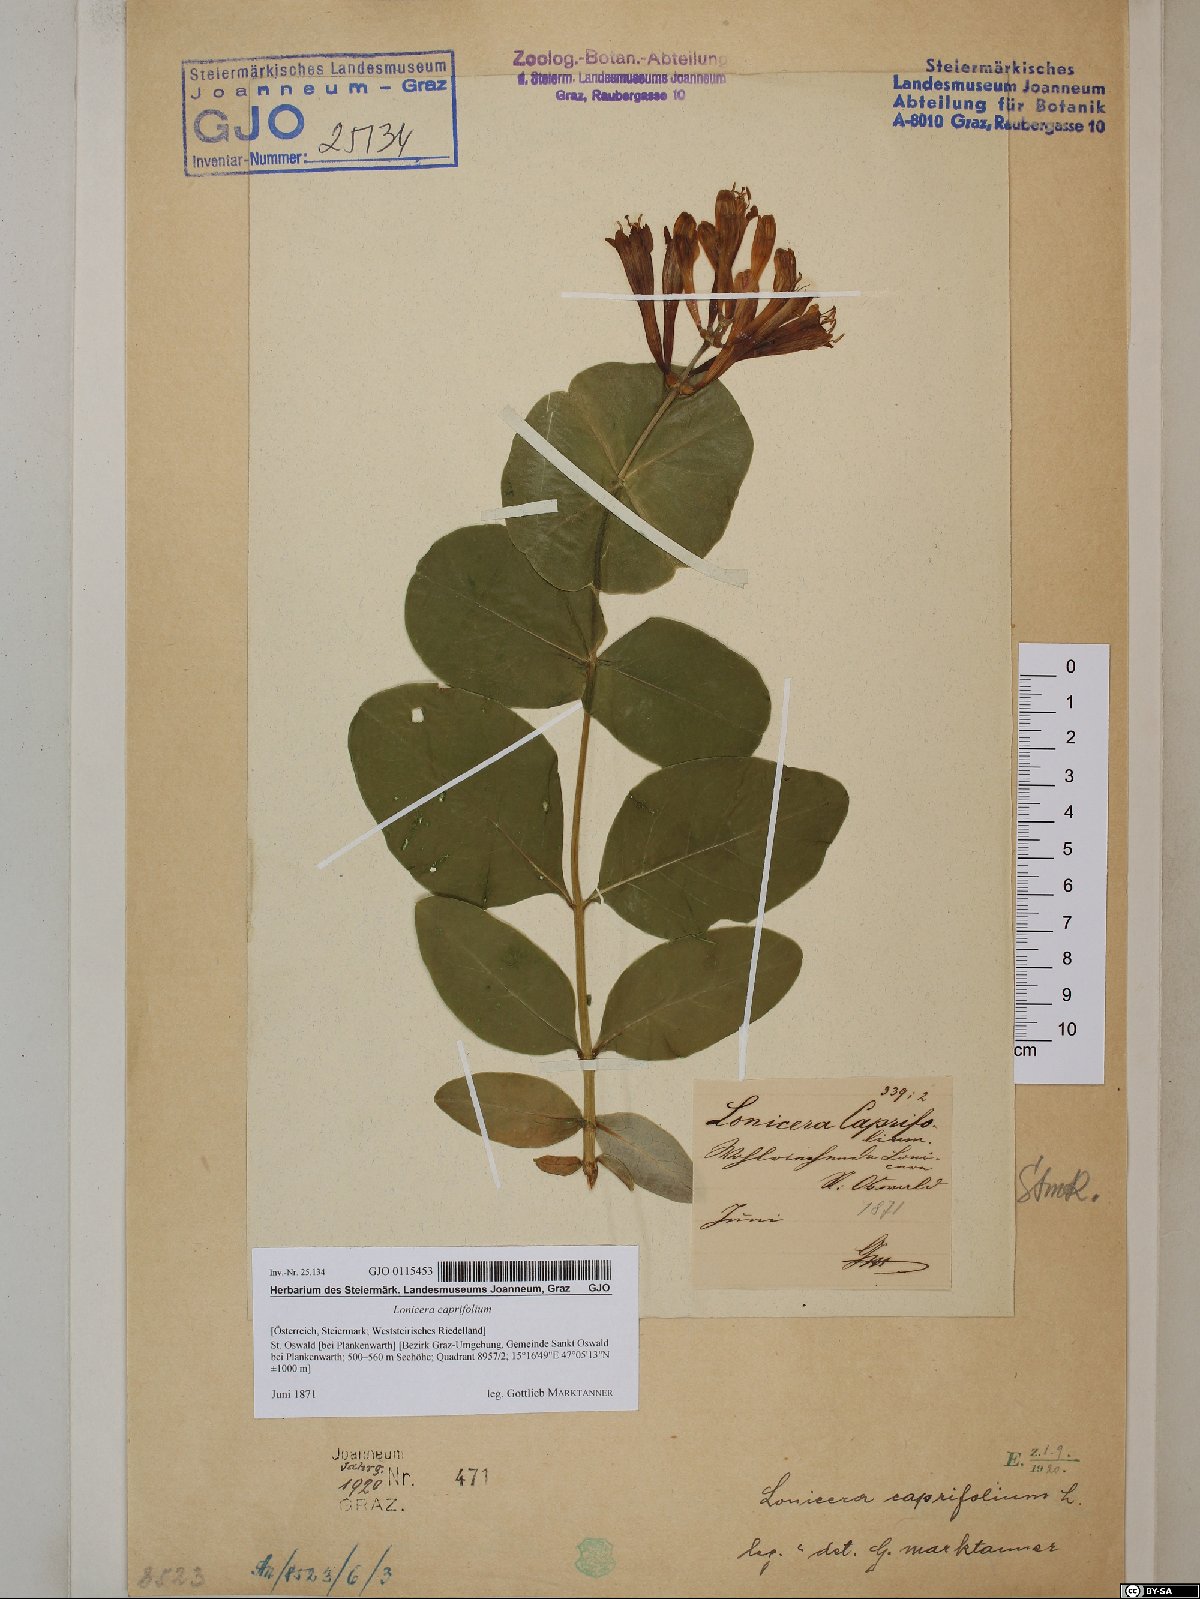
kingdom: Plantae
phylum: Tracheophyta
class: Magnoliopsida
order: Dipsacales
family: Caprifoliaceae
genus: Lonicera
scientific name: Lonicera caprifolium
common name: Perfoliate honeysuckle
